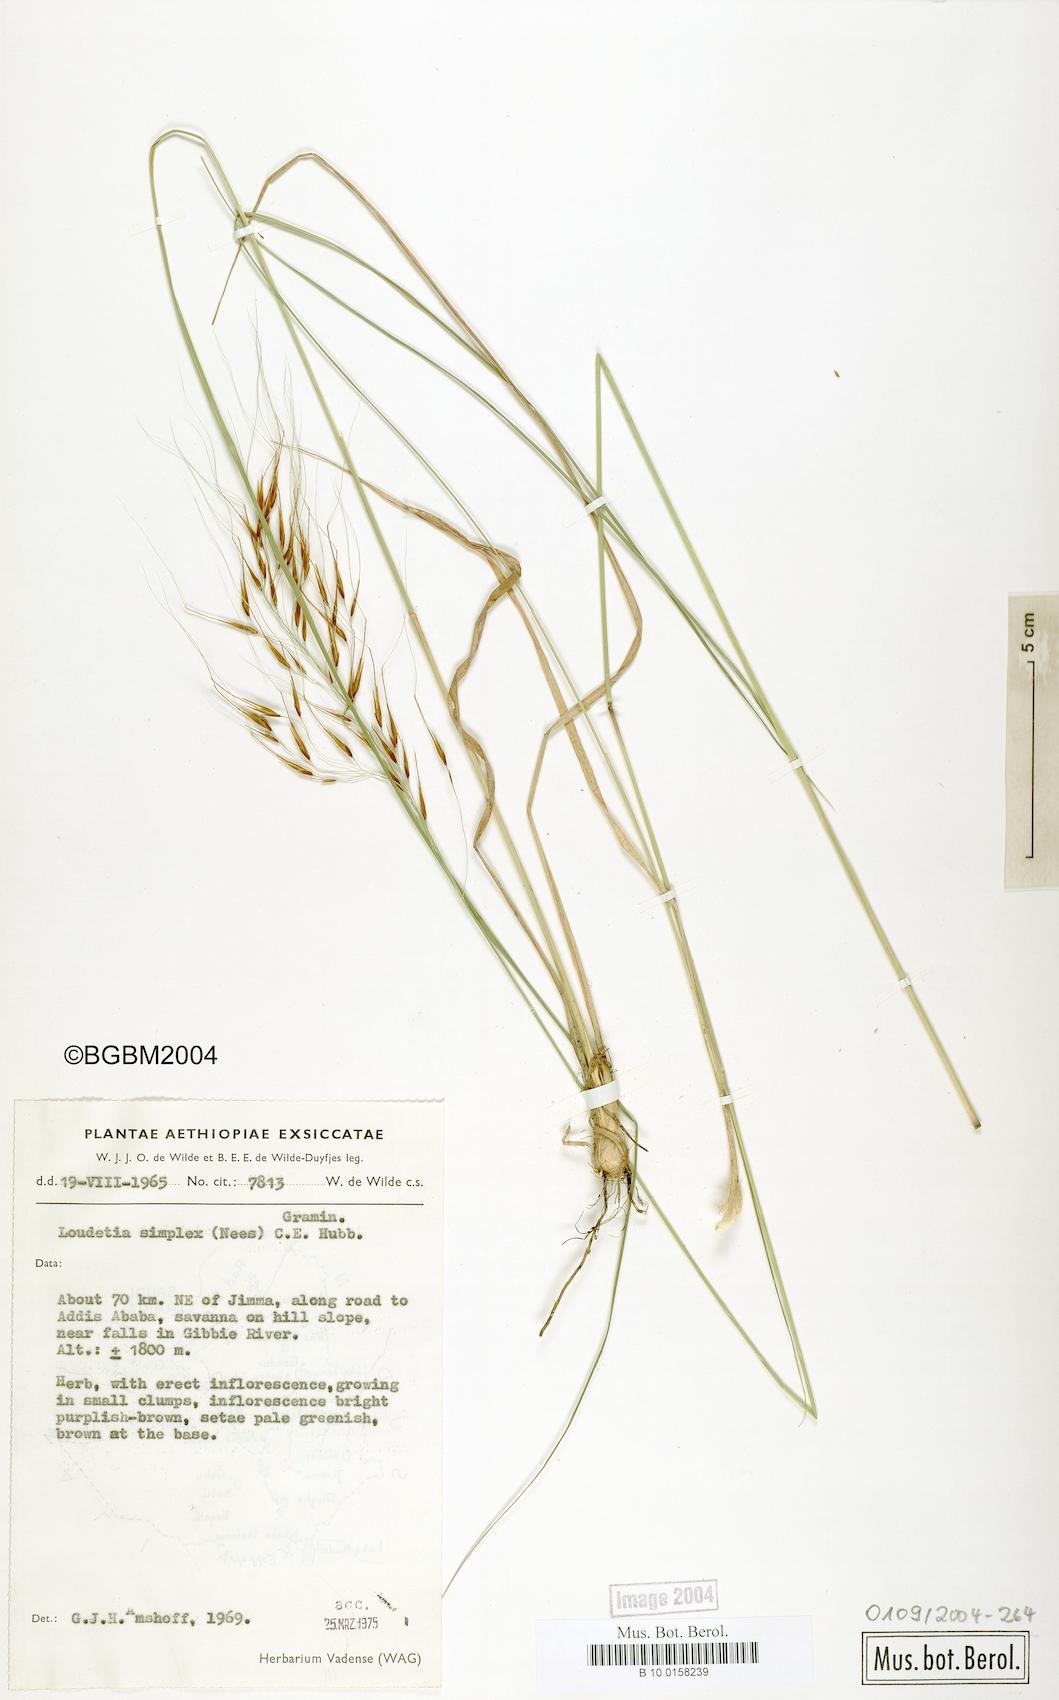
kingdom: Plantae
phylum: Tracheophyta
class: Liliopsida
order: Poales
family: Poaceae
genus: Loudetia
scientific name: Loudetia simplex
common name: Common russet grass
